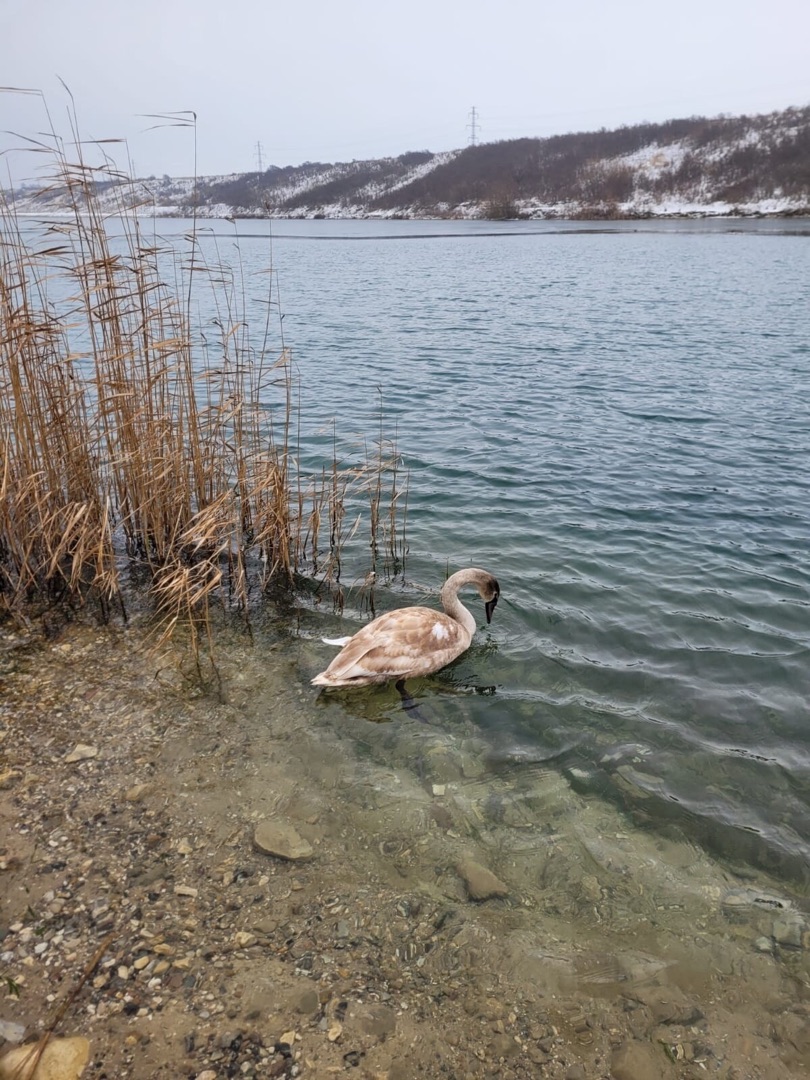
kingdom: Animalia
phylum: Chordata
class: Aves
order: Anseriformes
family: Anatidae
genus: Cygnus
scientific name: Cygnus olor
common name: Knopsvane
